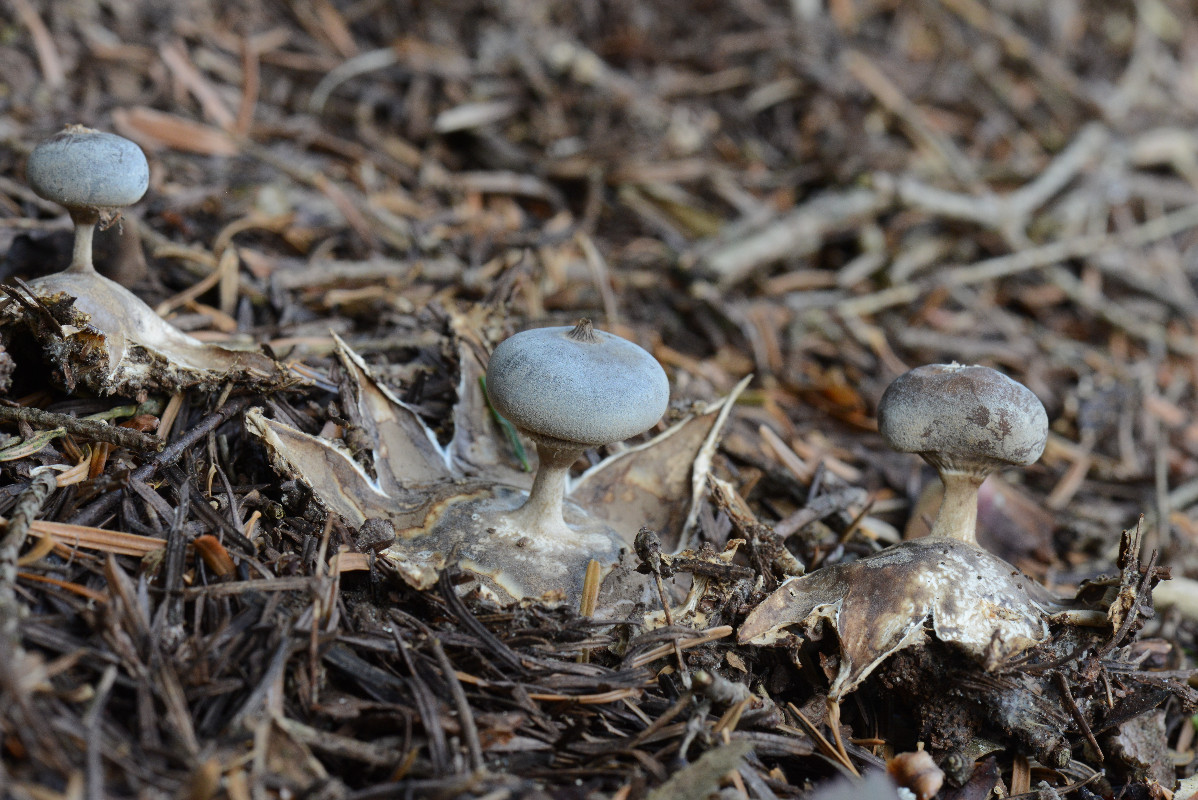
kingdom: Fungi
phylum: Basidiomycota
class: Agaricomycetes
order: Geastrales
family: Geastraceae
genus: Geastrum
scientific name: Geastrum pectinatum
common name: stilket stjernebold
